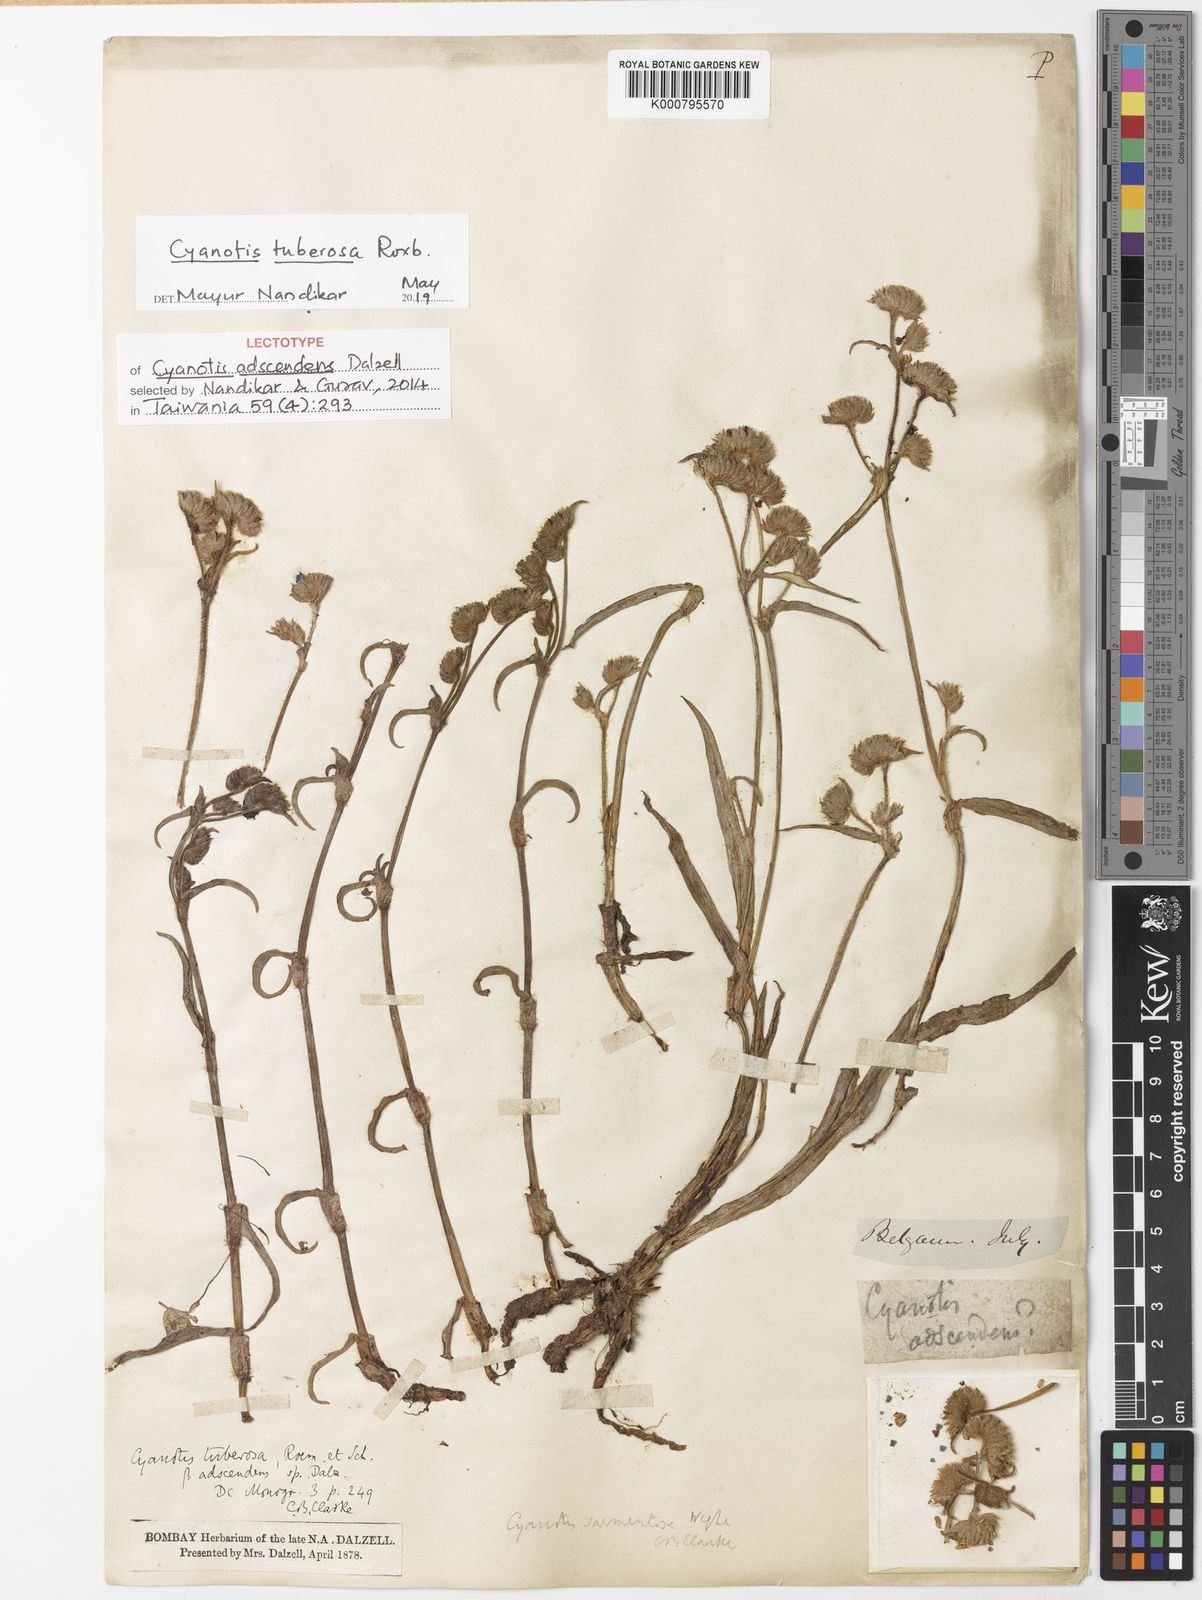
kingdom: Plantae
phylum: Tracheophyta
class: Liliopsida
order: Commelinales
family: Commelinaceae
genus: Cyanotis
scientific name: Cyanotis tuberosa
